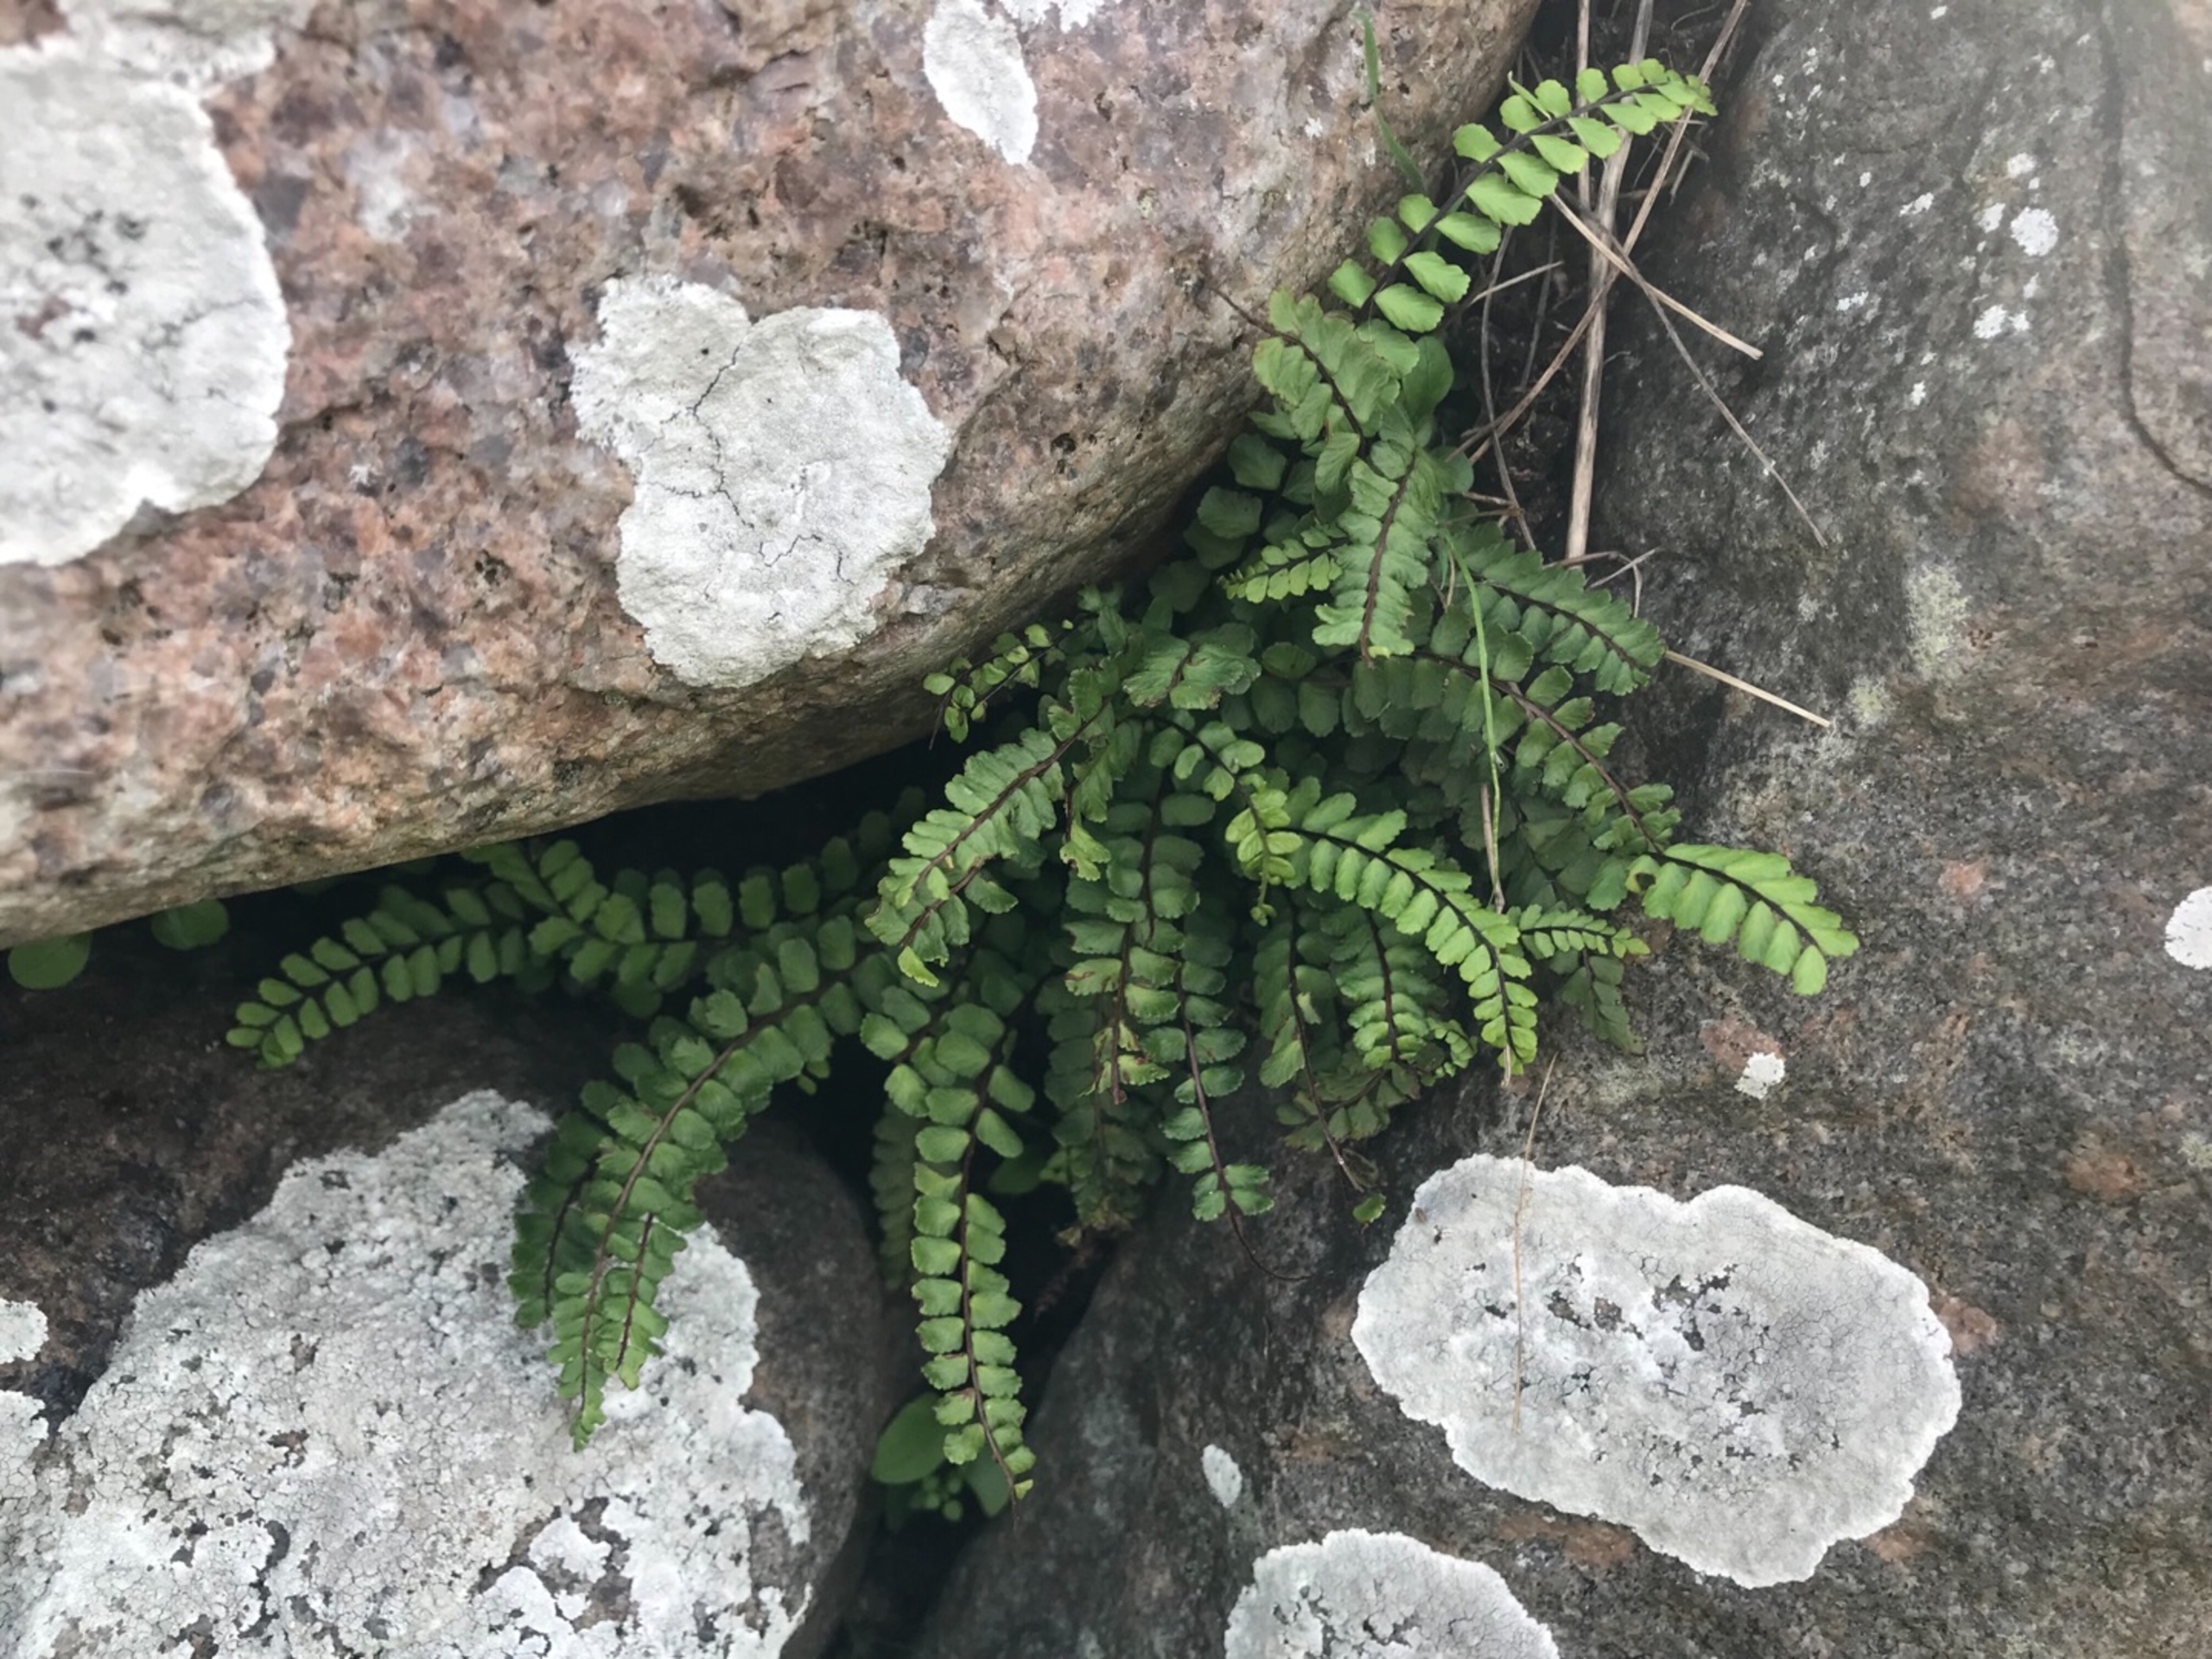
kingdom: Plantae
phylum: Tracheophyta
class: Polypodiopsida
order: Polypodiales
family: Aspleniaceae
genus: Asplenium
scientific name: Asplenium trichomanes
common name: Rundfinnet radeløv
